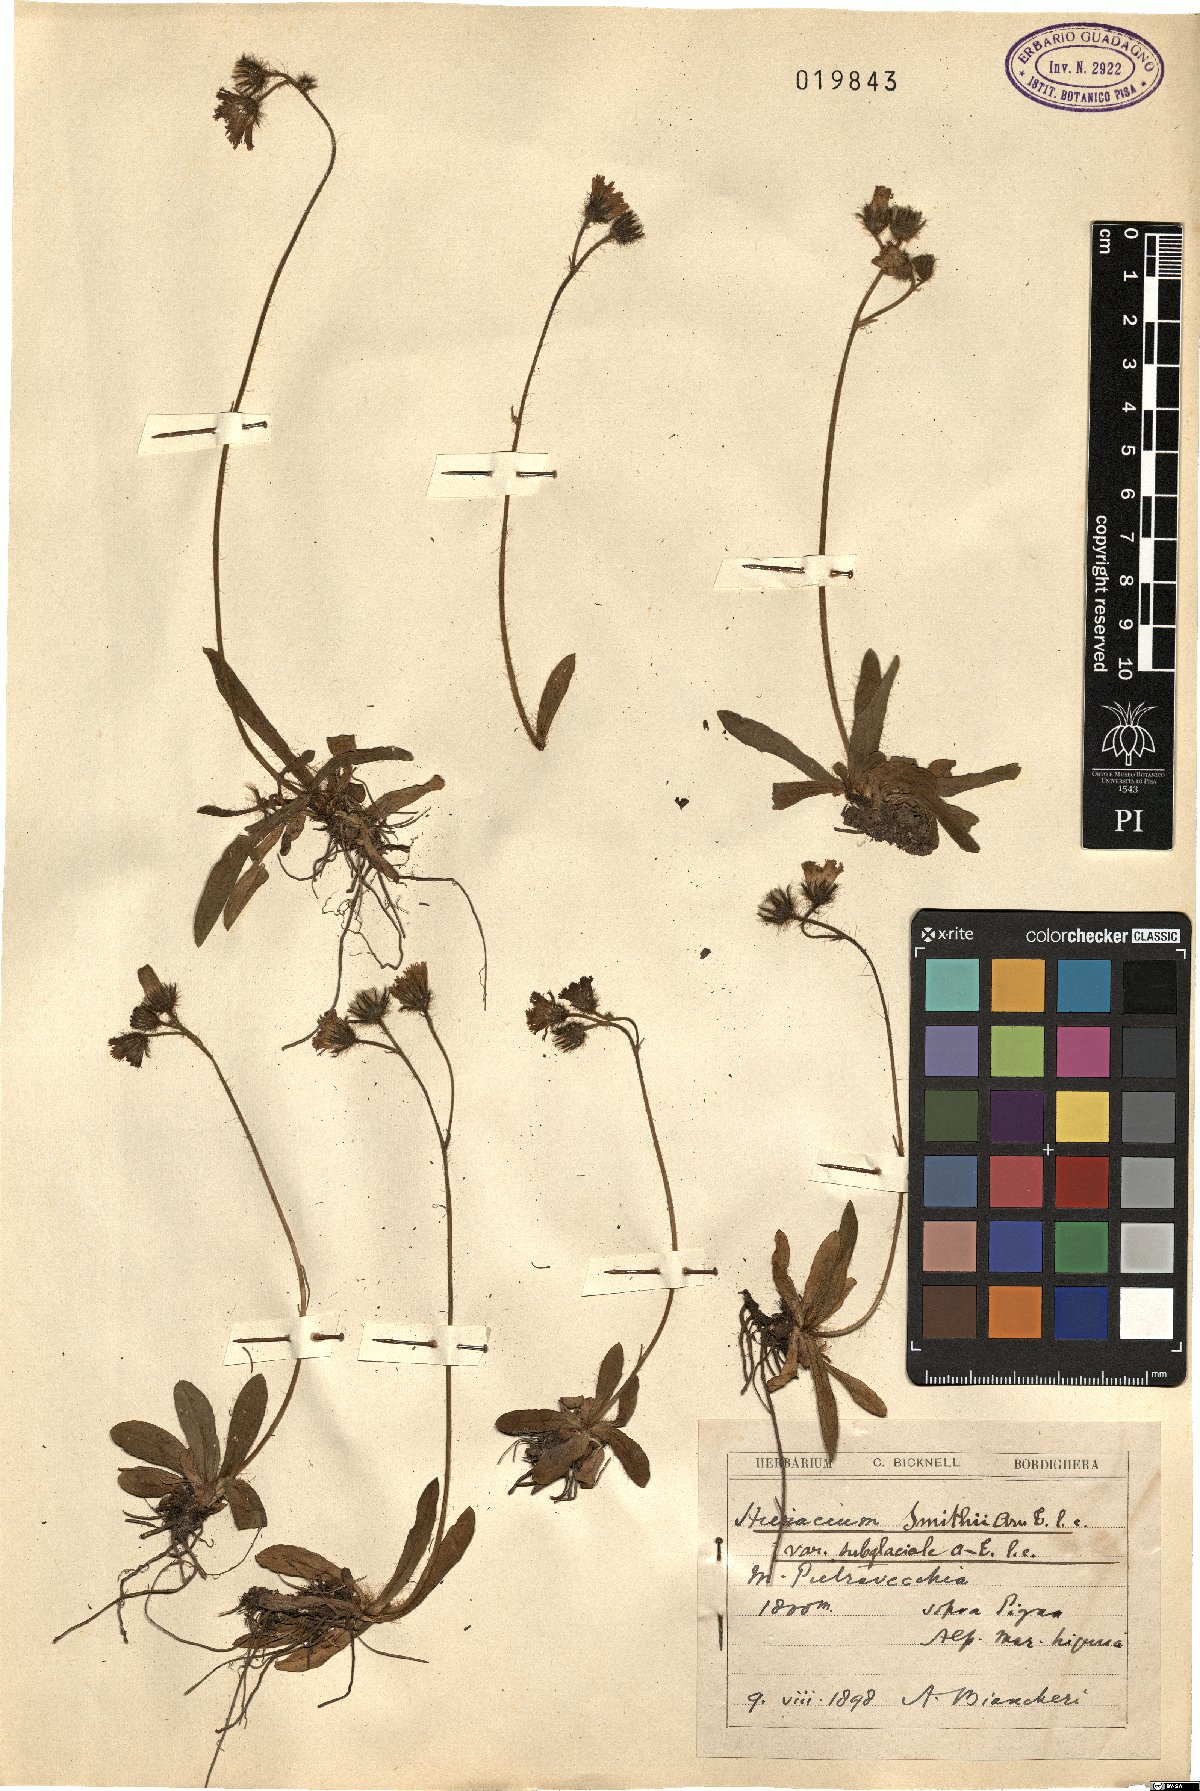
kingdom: Plantae
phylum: Tracheophyta
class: Magnoliopsida
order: Asterales
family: Asteraceae
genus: Pilosella
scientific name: Pilosella corymbuloides
